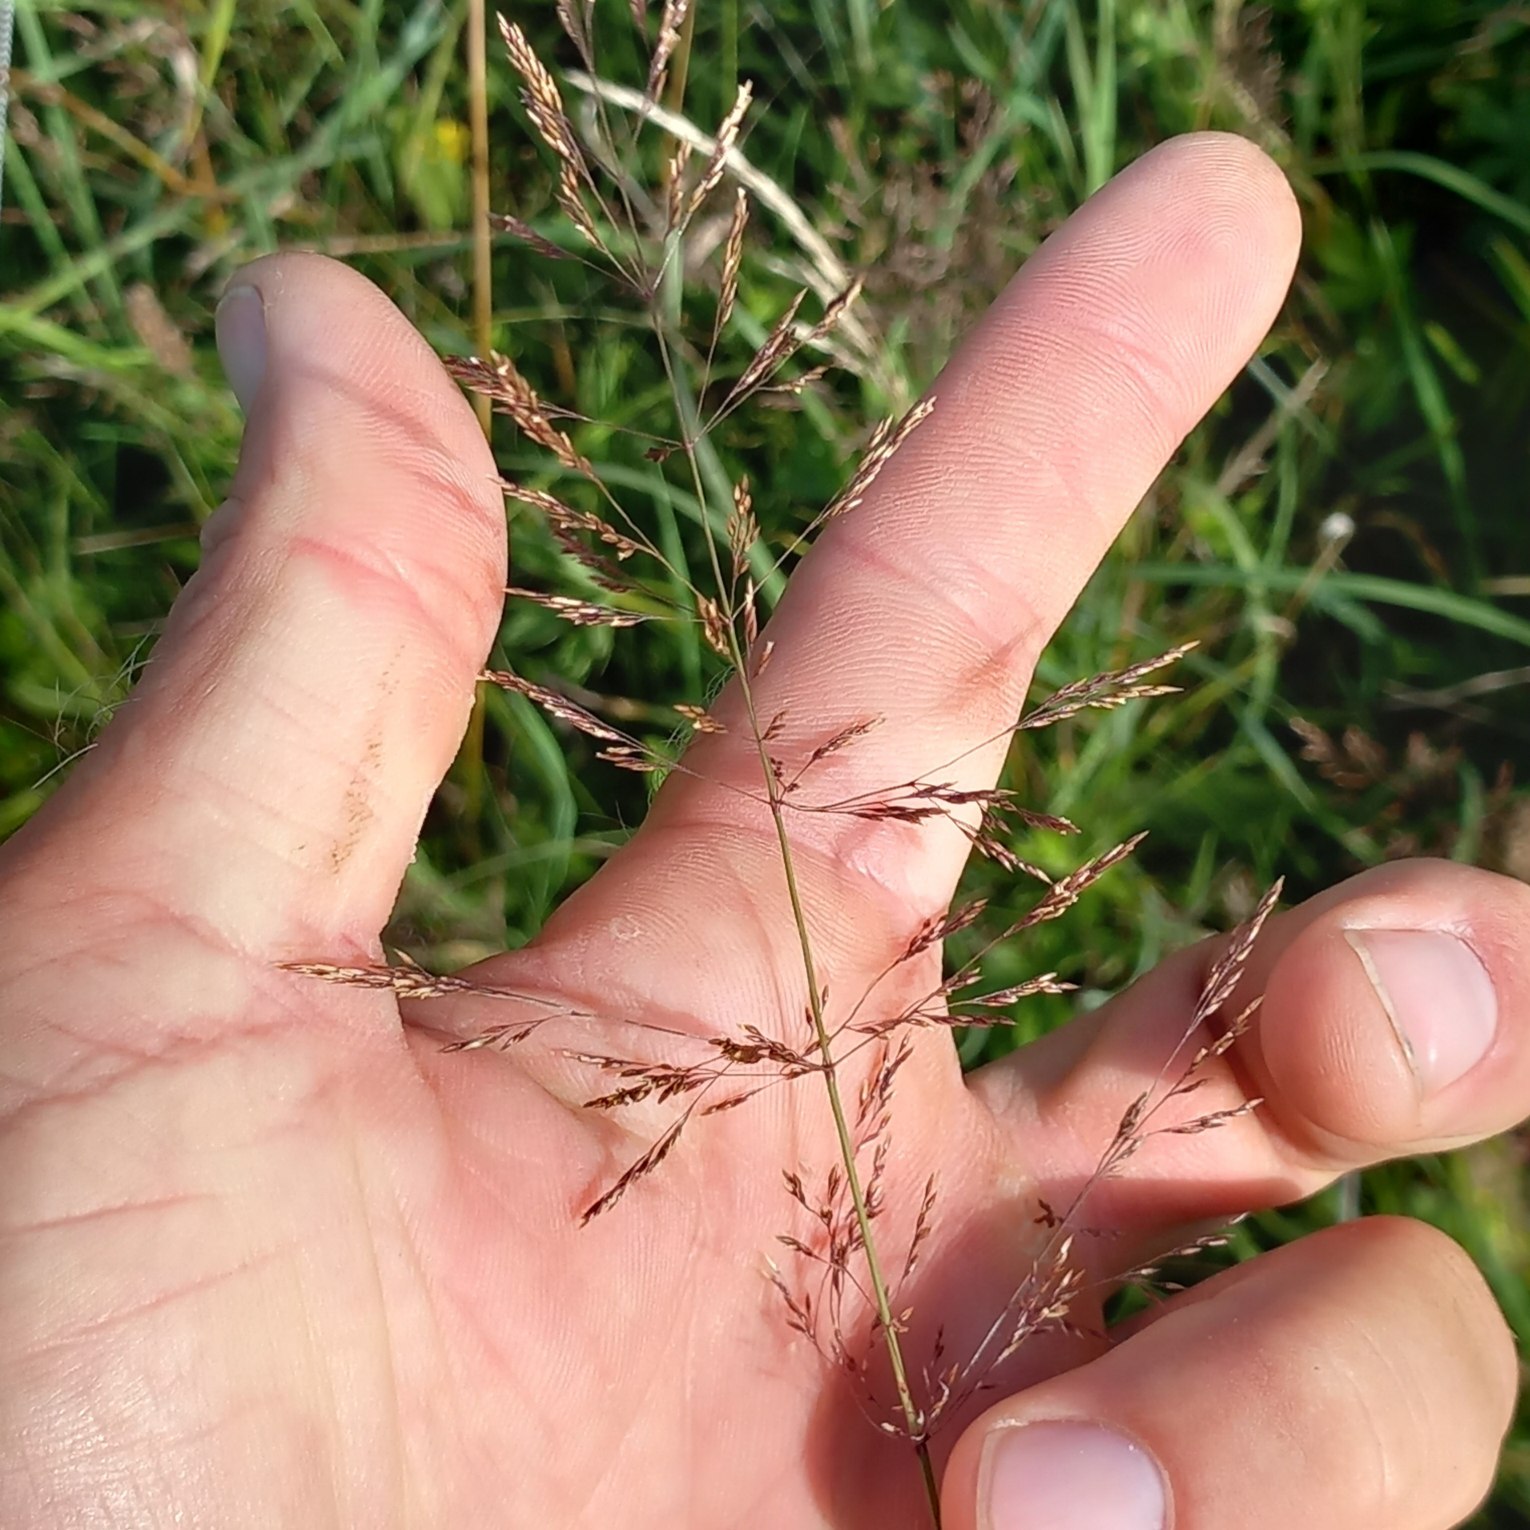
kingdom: Plantae
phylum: Tracheophyta
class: Liliopsida
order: Poales
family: Poaceae
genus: Agrostis
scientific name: Agrostis gigantea
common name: Stortoppet hvene
